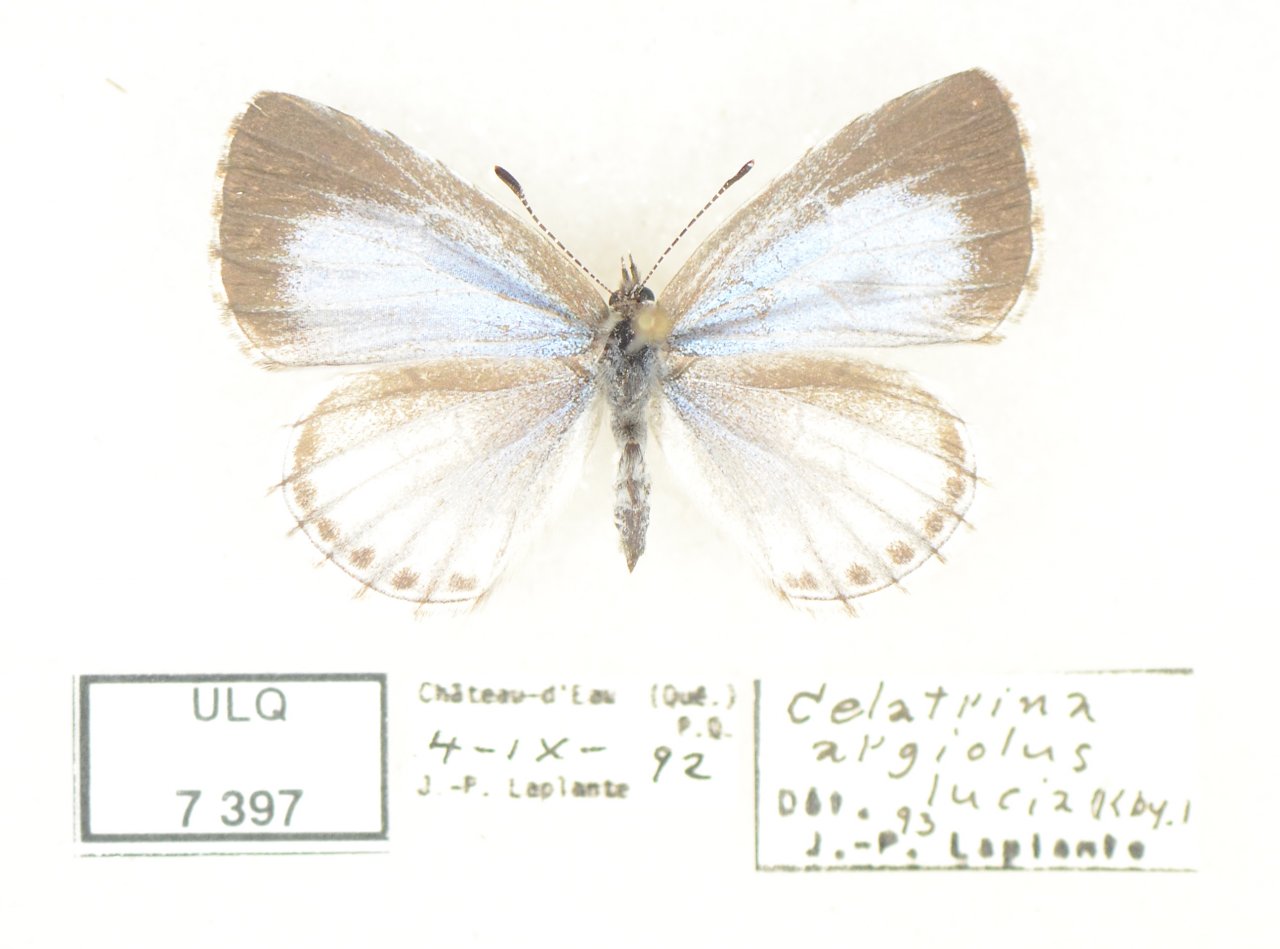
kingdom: Animalia
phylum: Arthropoda
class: Insecta
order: Lepidoptera
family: Lycaenidae
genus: Celastrina
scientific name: Celastrina lucia
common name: Northern Spring Azure
